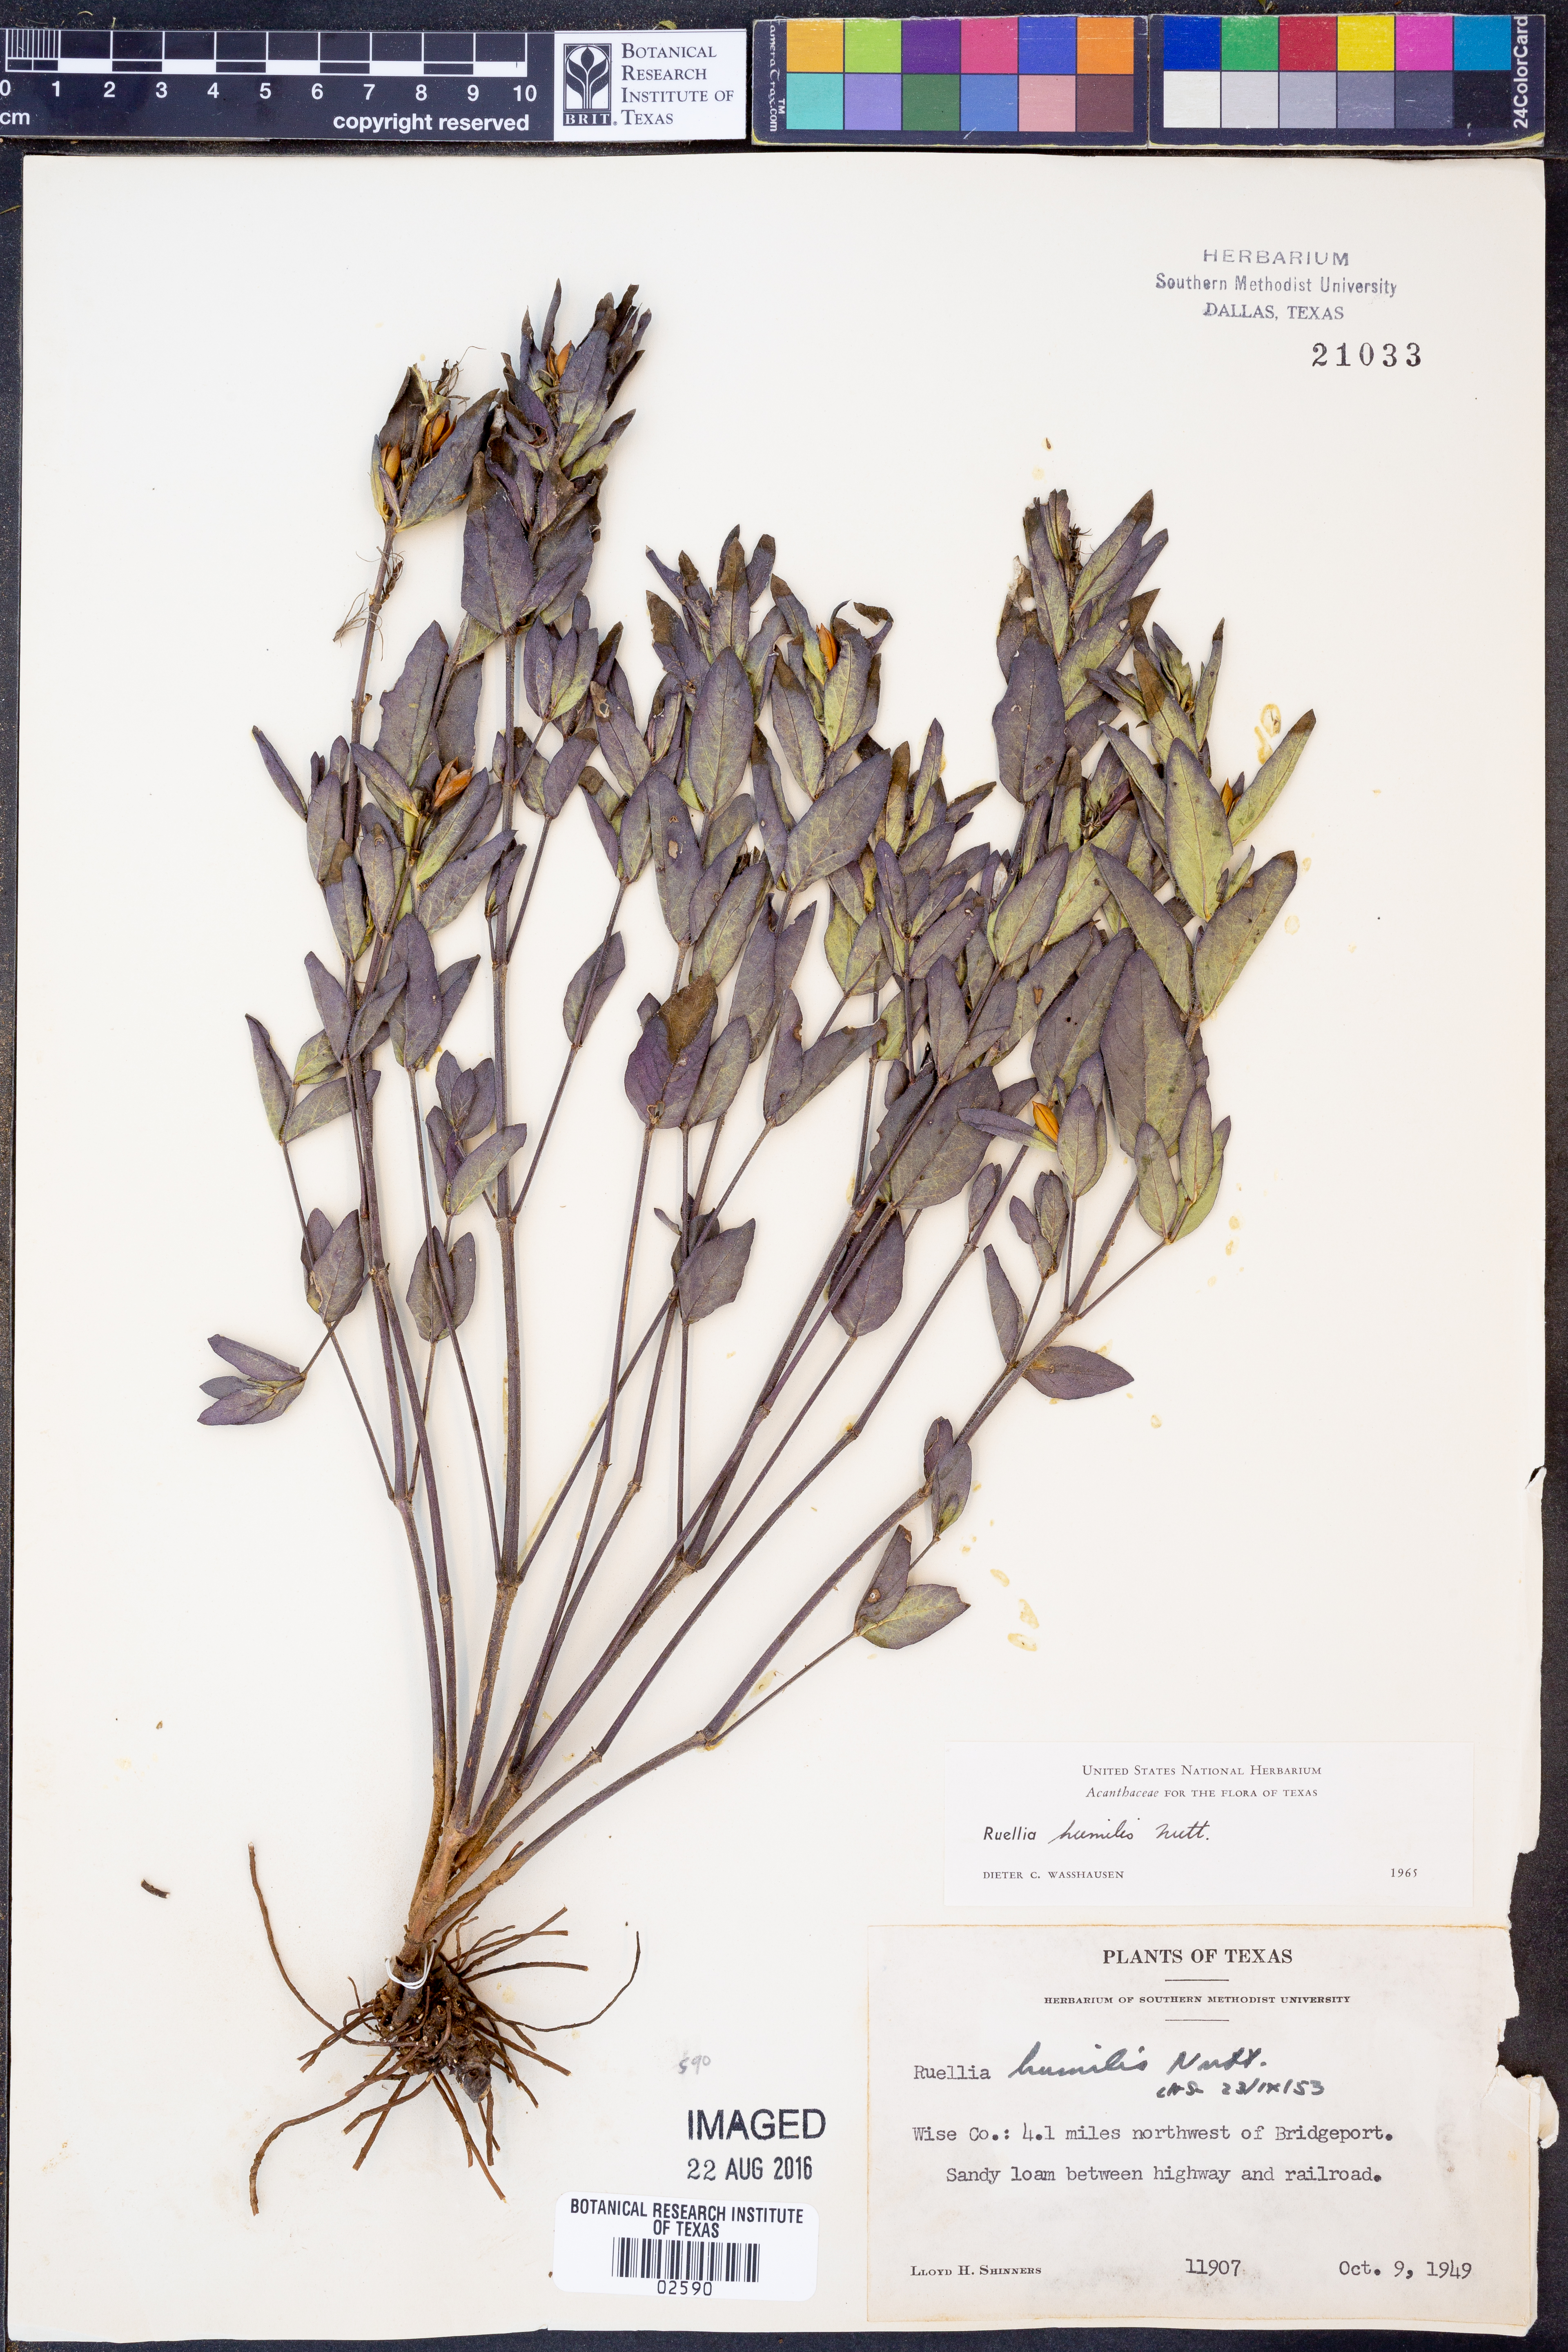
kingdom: Plantae
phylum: Tracheophyta
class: Magnoliopsida
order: Lamiales
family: Acanthaceae
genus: Ruellia
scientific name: Ruellia humilis
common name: Fringe-leaf ruellia
